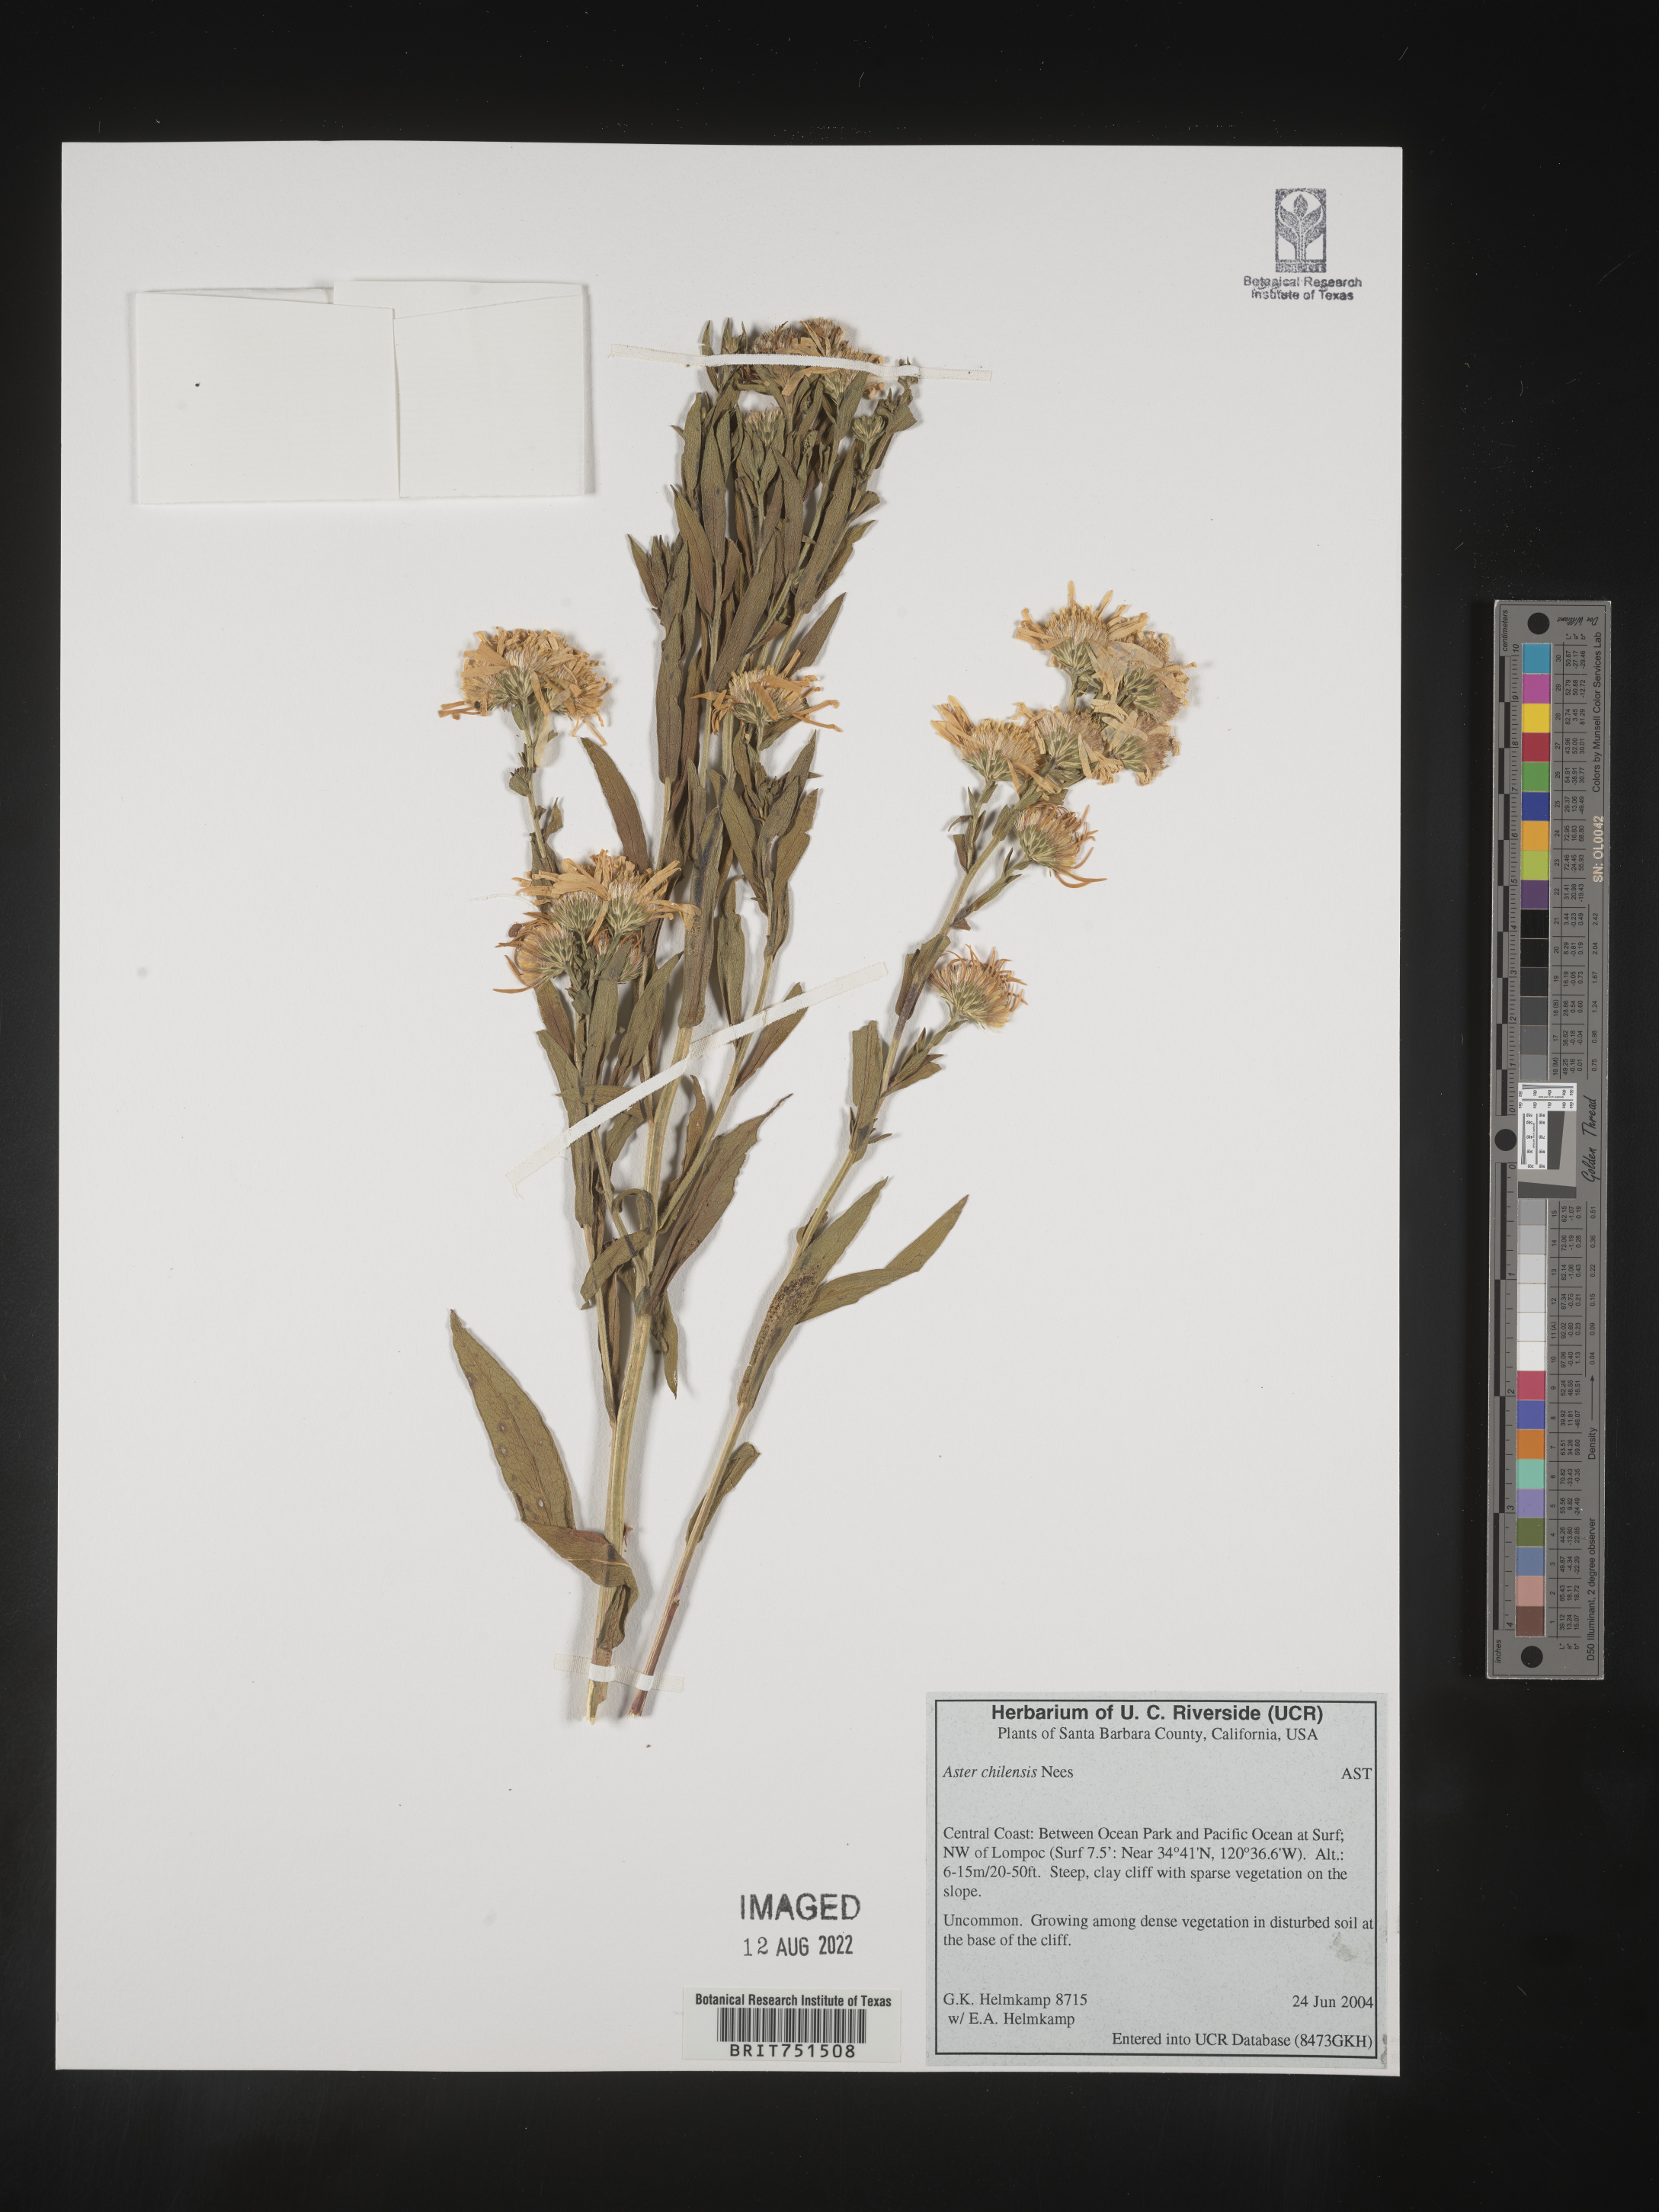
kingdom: Plantae
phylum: Tracheophyta
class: Magnoliopsida
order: Asterales
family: Asteraceae
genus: Symphyotrichum
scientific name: Symphyotrichum chilense
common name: Pacific aster
